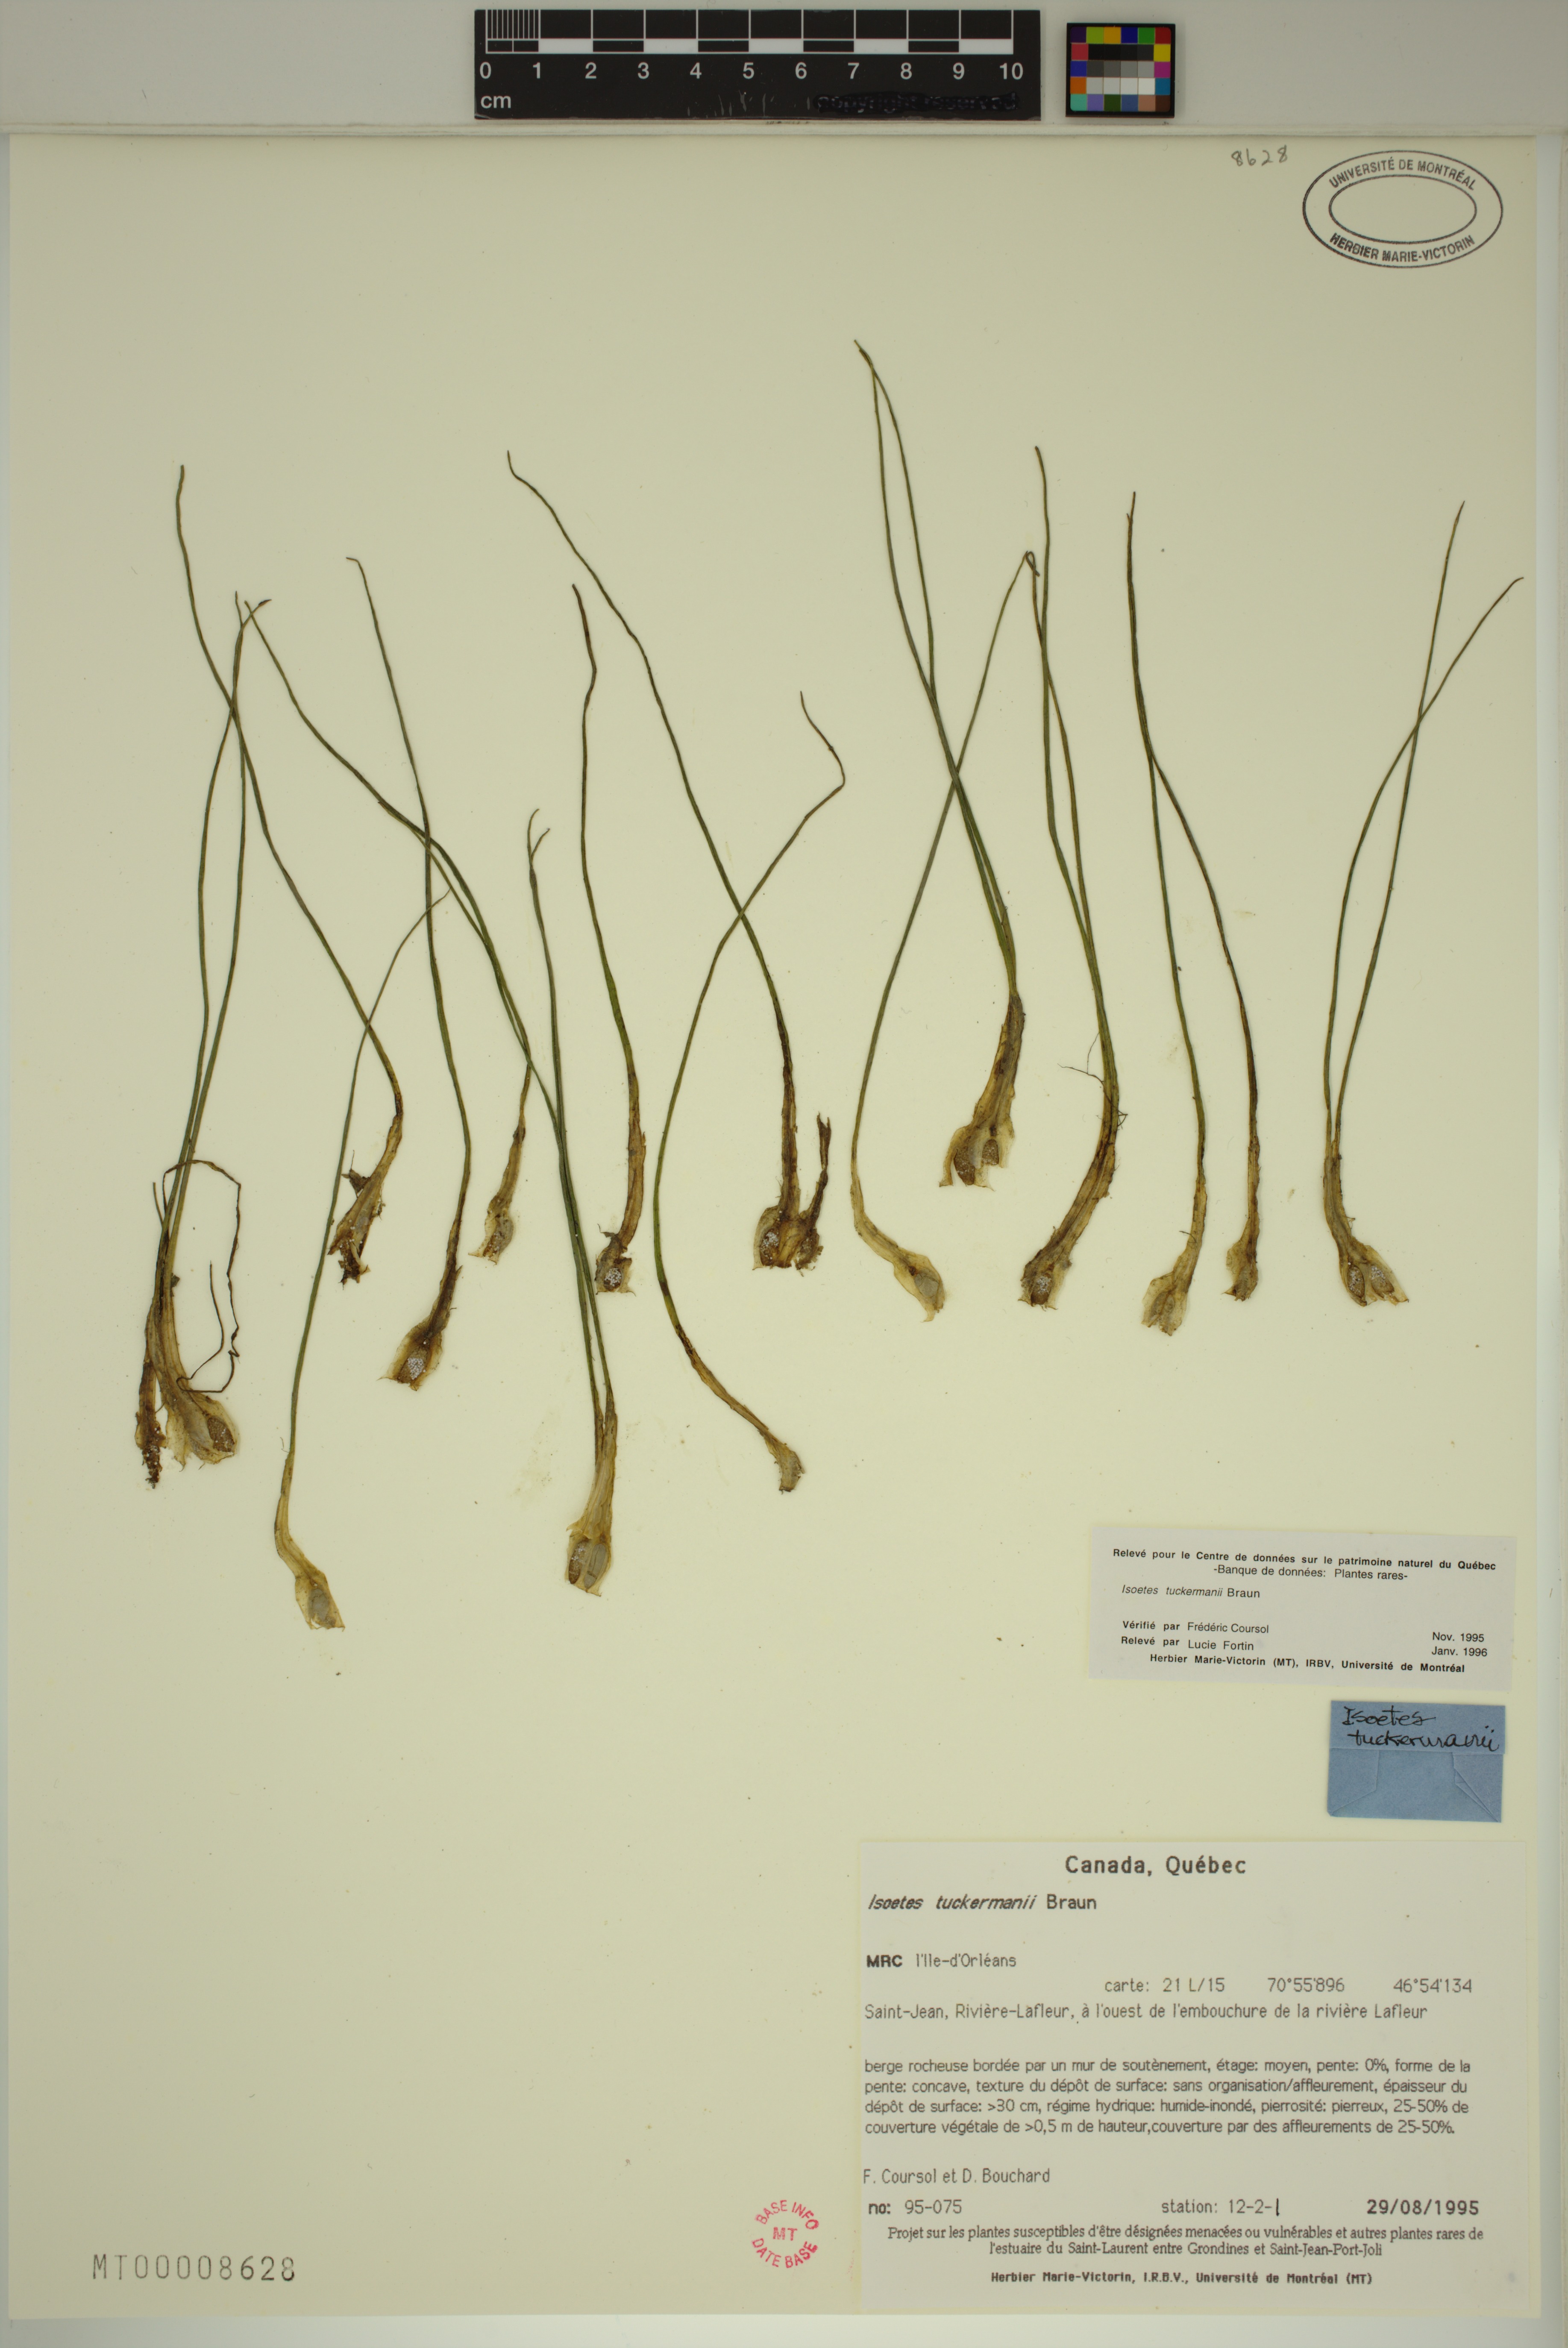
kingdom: Plantae
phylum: Tracheophyta
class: Lycopodiopsida
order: Isoetales
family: Isoetaceae
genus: Isoetes
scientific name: Isoetes laurentiana
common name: St. lawrence quillwort
